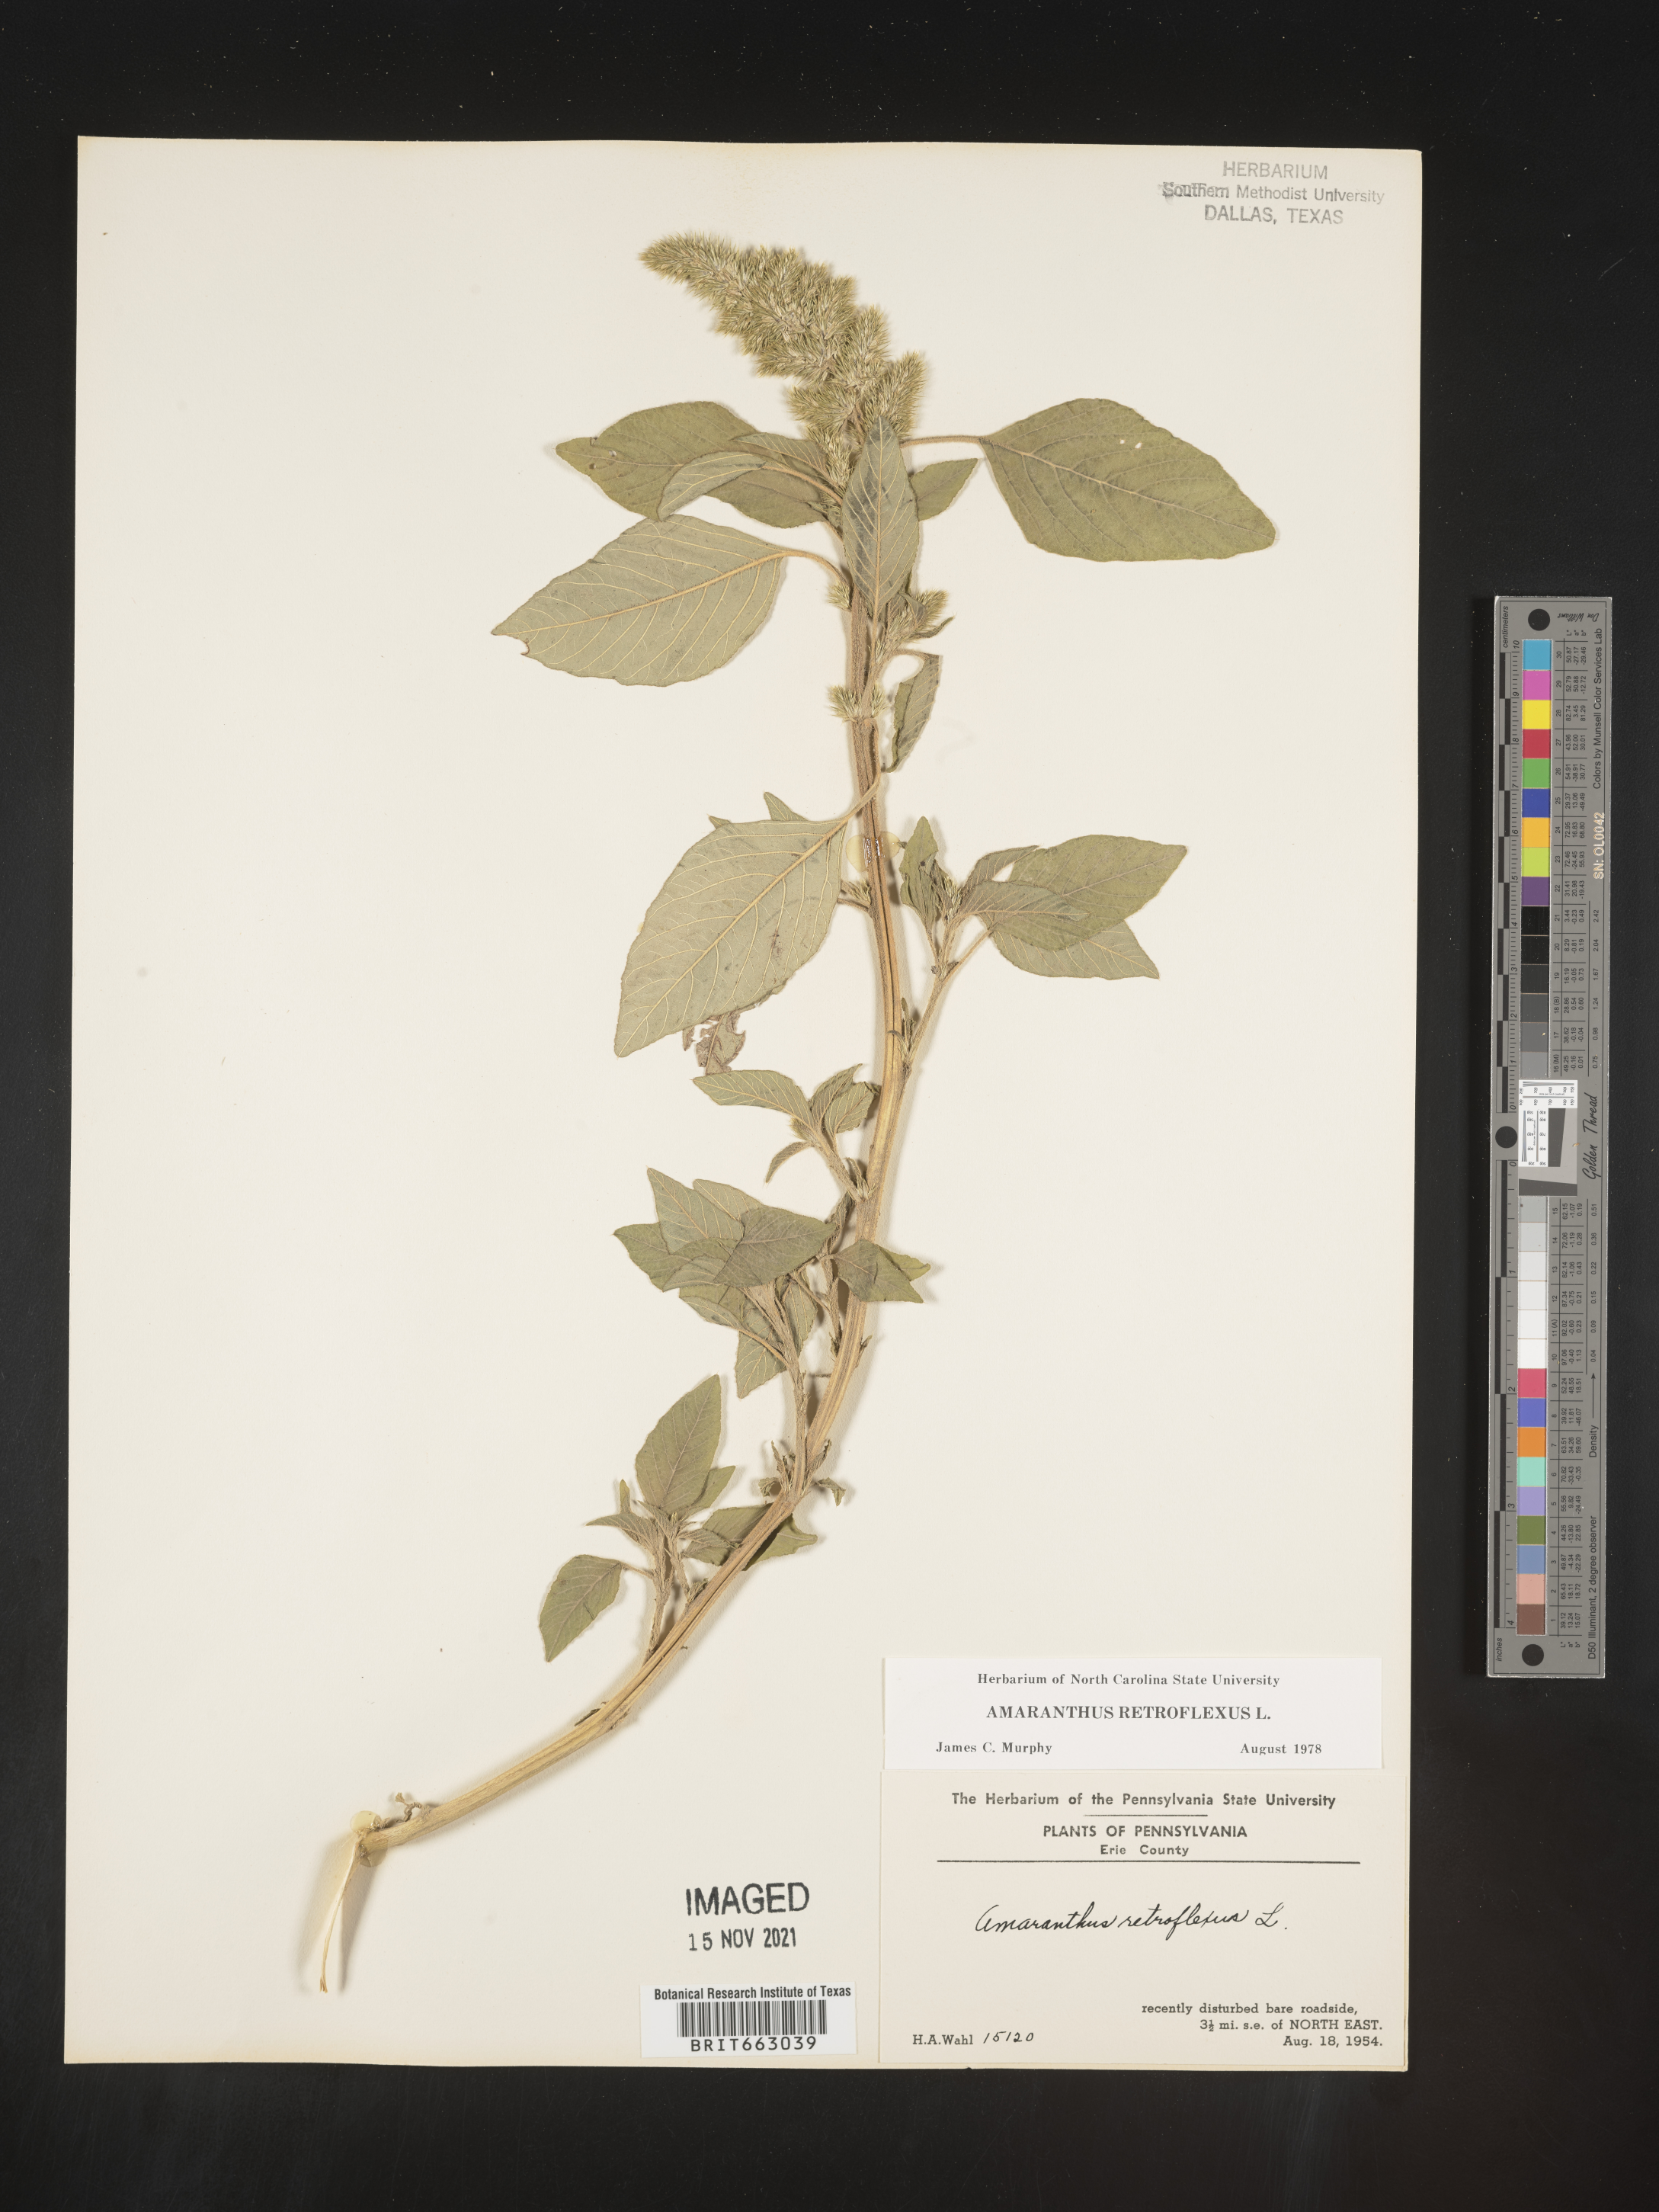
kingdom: Plantae
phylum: Tracheophyta
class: Magnoliopsida
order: Caryophyllales
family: Amaranthaceae
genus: Amaranthus
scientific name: Amaranthus retroflexus
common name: Redroot amaranth
